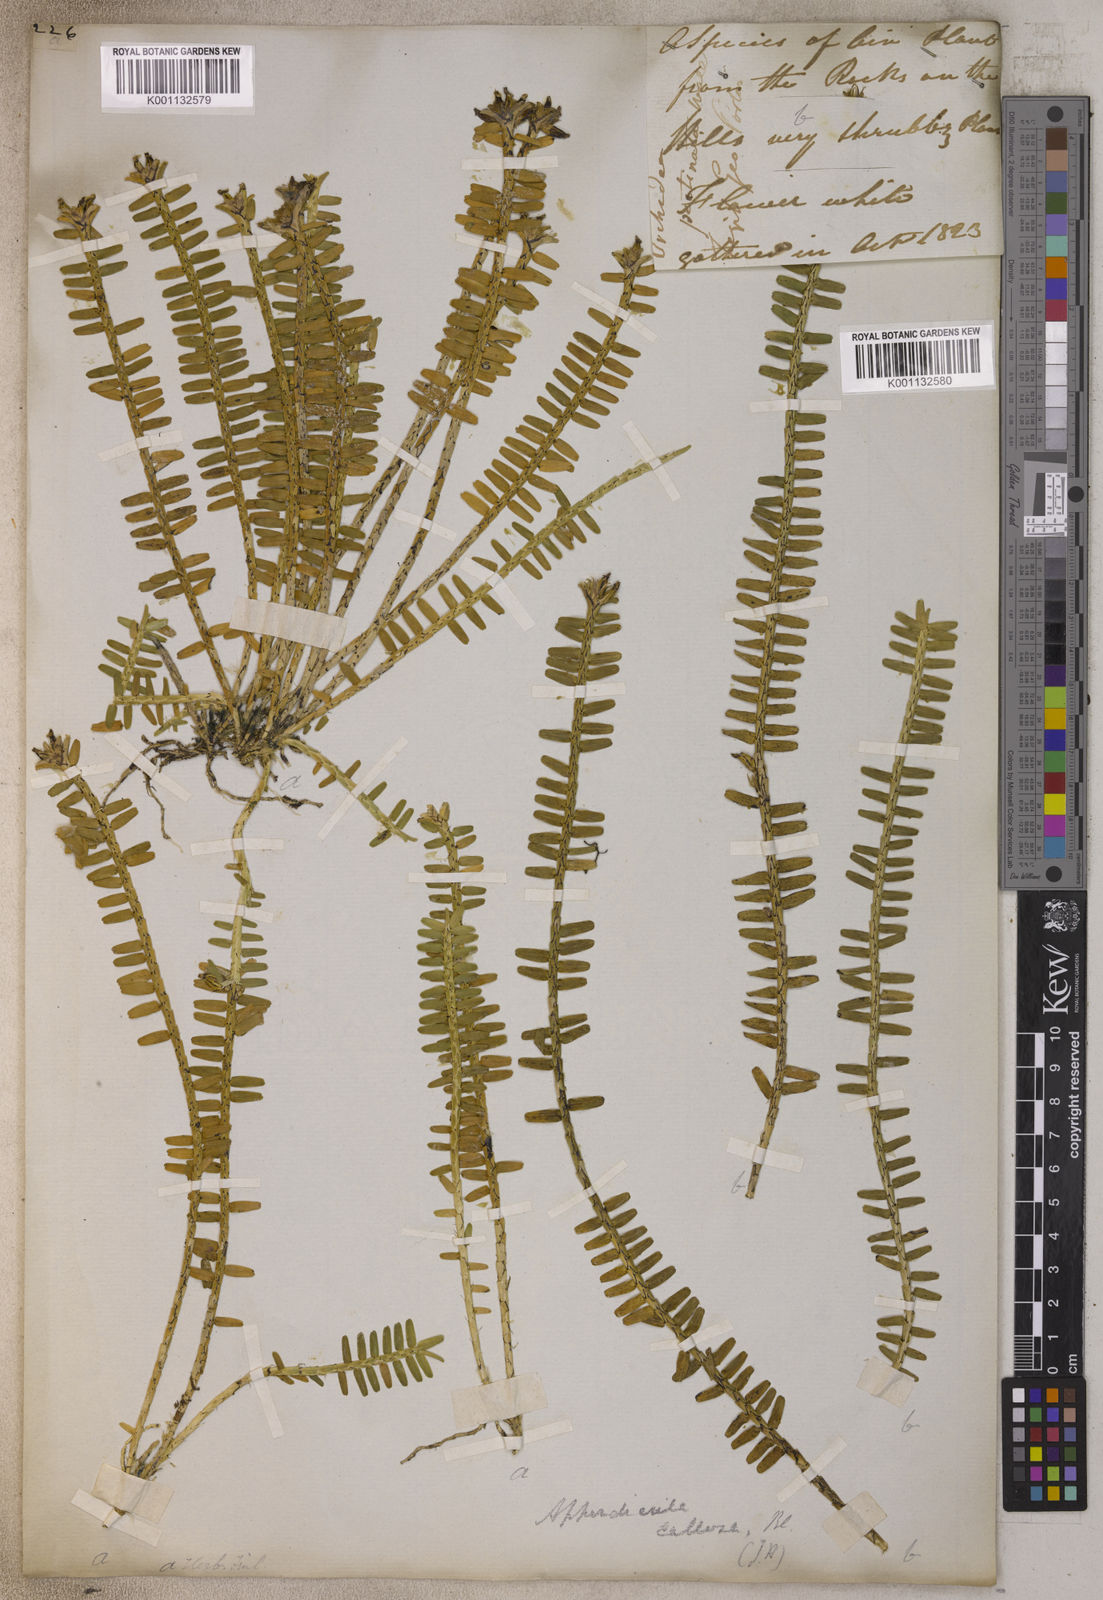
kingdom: Plantae
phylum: Tracheophyta
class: Liliopsida
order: Asparagales
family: Orchidaceae
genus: Agrostophyllum
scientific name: Agrostophyllum stipulatum
